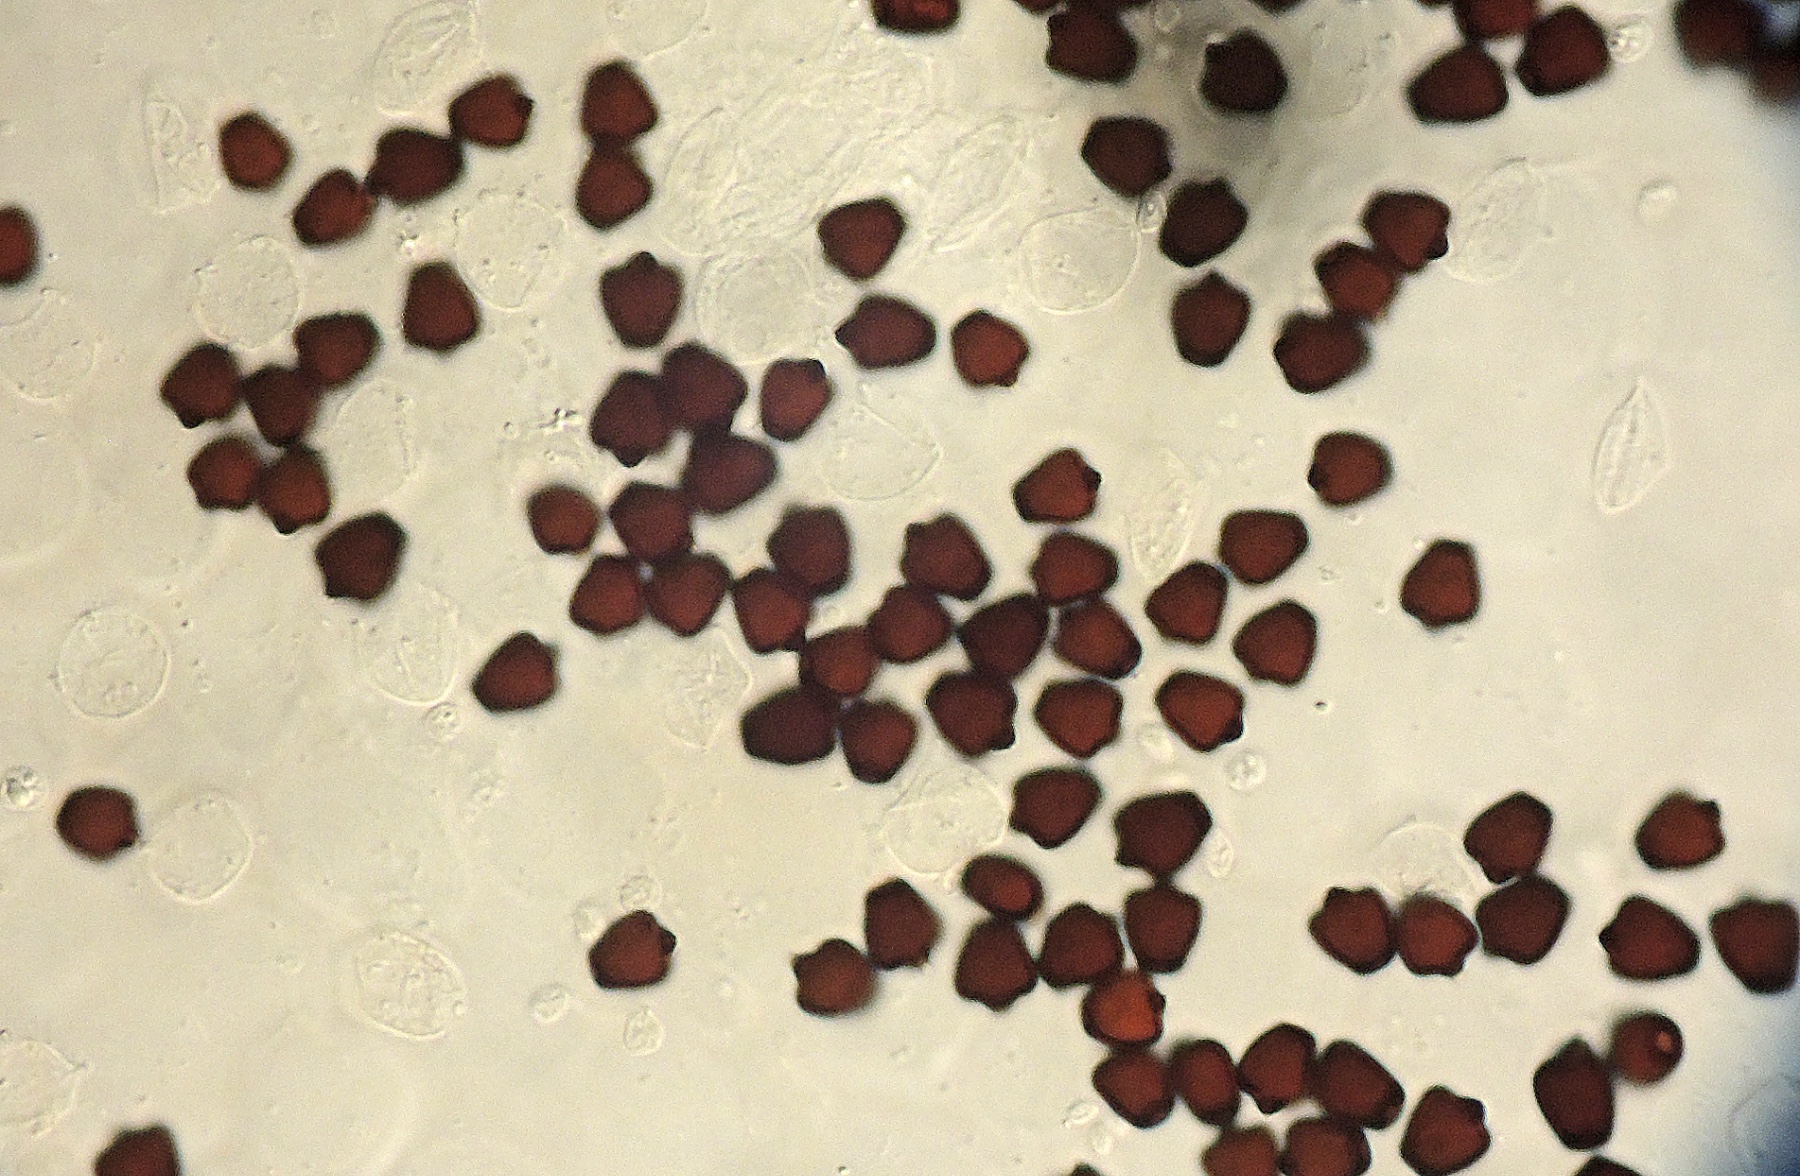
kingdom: Fungi
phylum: Basidiomycota
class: Agaricomycetes
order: Agaricales
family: Psathyrellaceae
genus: Tulosesus
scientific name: Tulosesus angulatus
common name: kul-blækhat
